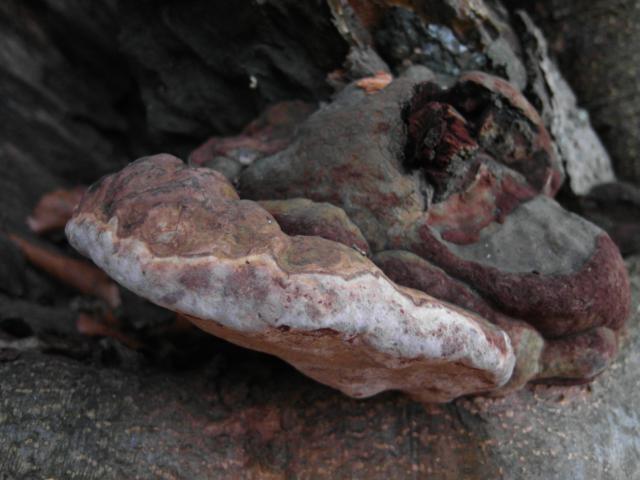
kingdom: Fungi
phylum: Basidiomycota
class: Agaricomycetes
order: Polyporales
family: Polyporaceae
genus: Ganoderma
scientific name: Ganoderma pfeifferi
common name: kobberrød lakporesvamp
